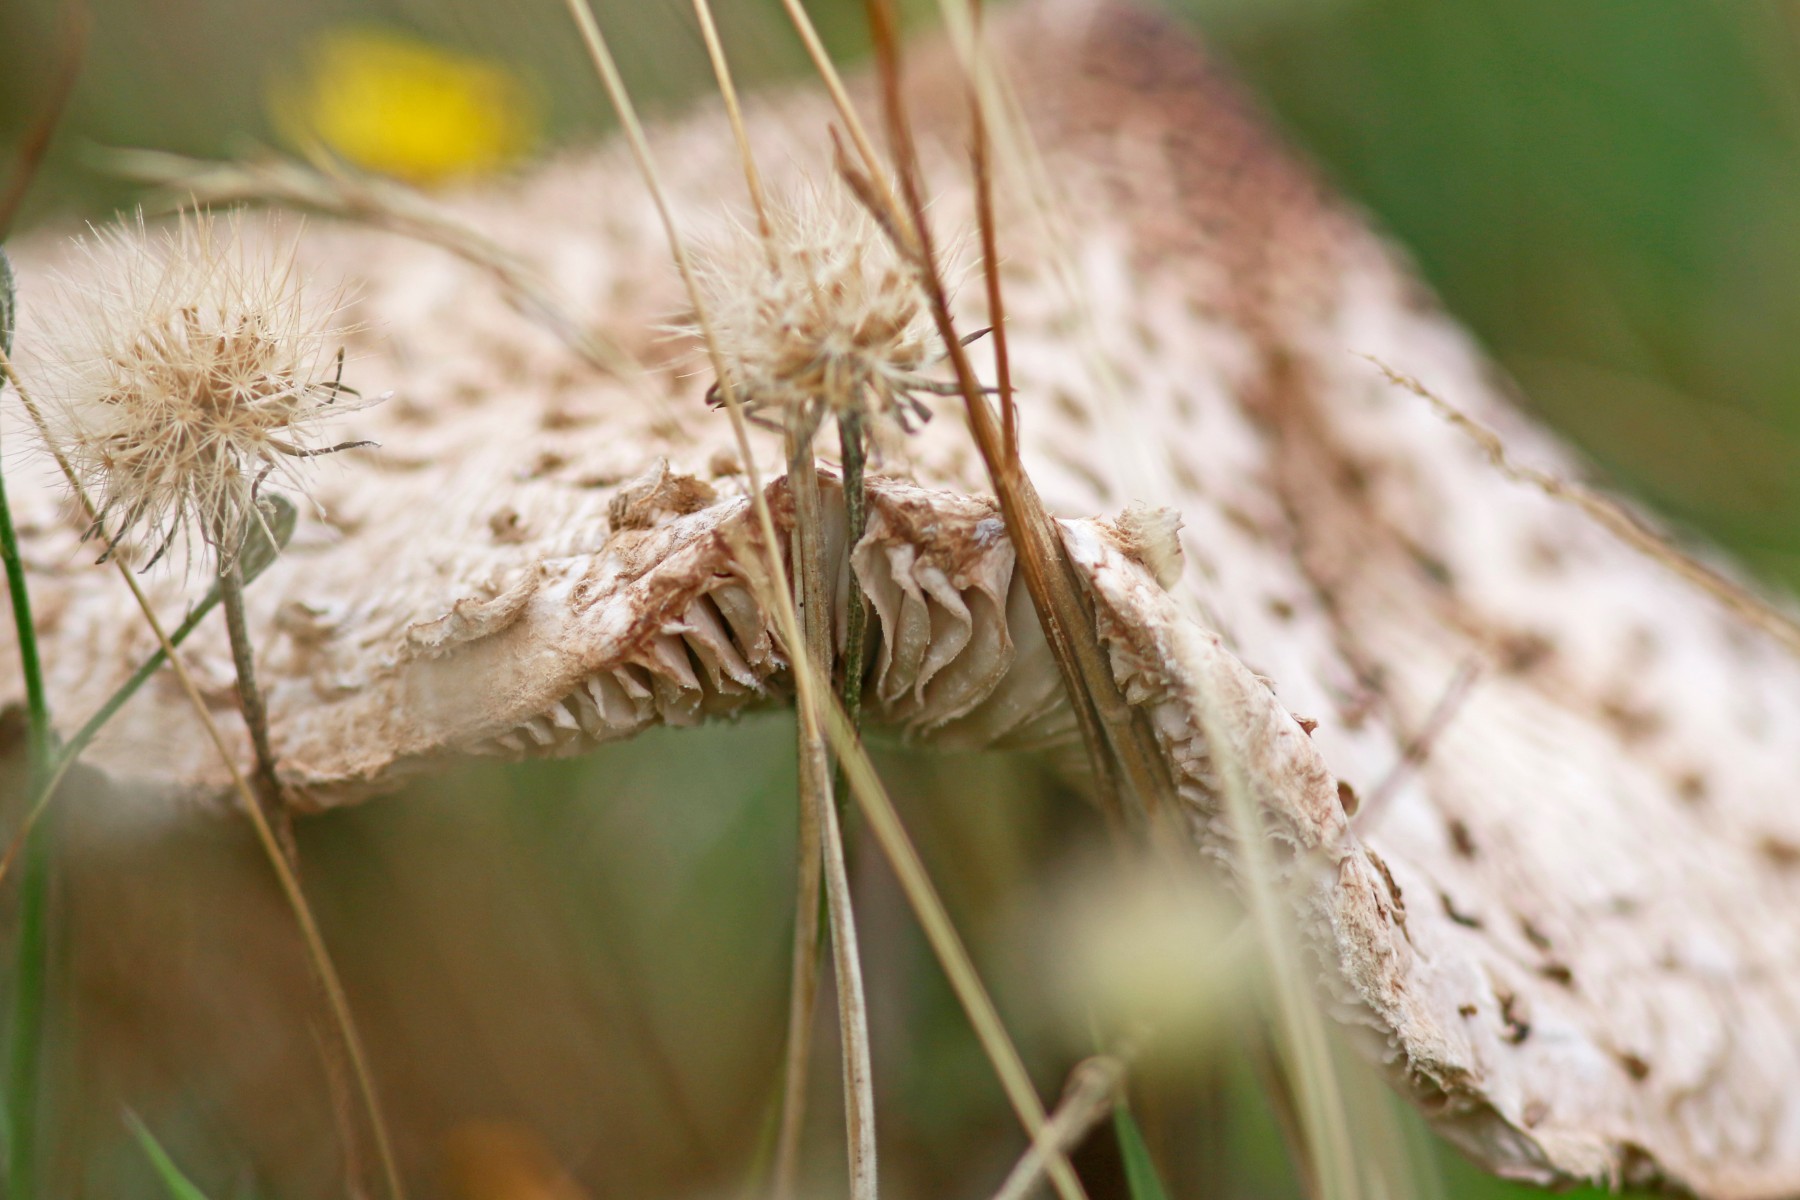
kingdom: Fungi
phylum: Basidiomycota
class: Agaricomycetes
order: Agaricales
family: Agaricaceae
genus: Lepiota
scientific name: Lepiota
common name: parasolhat
